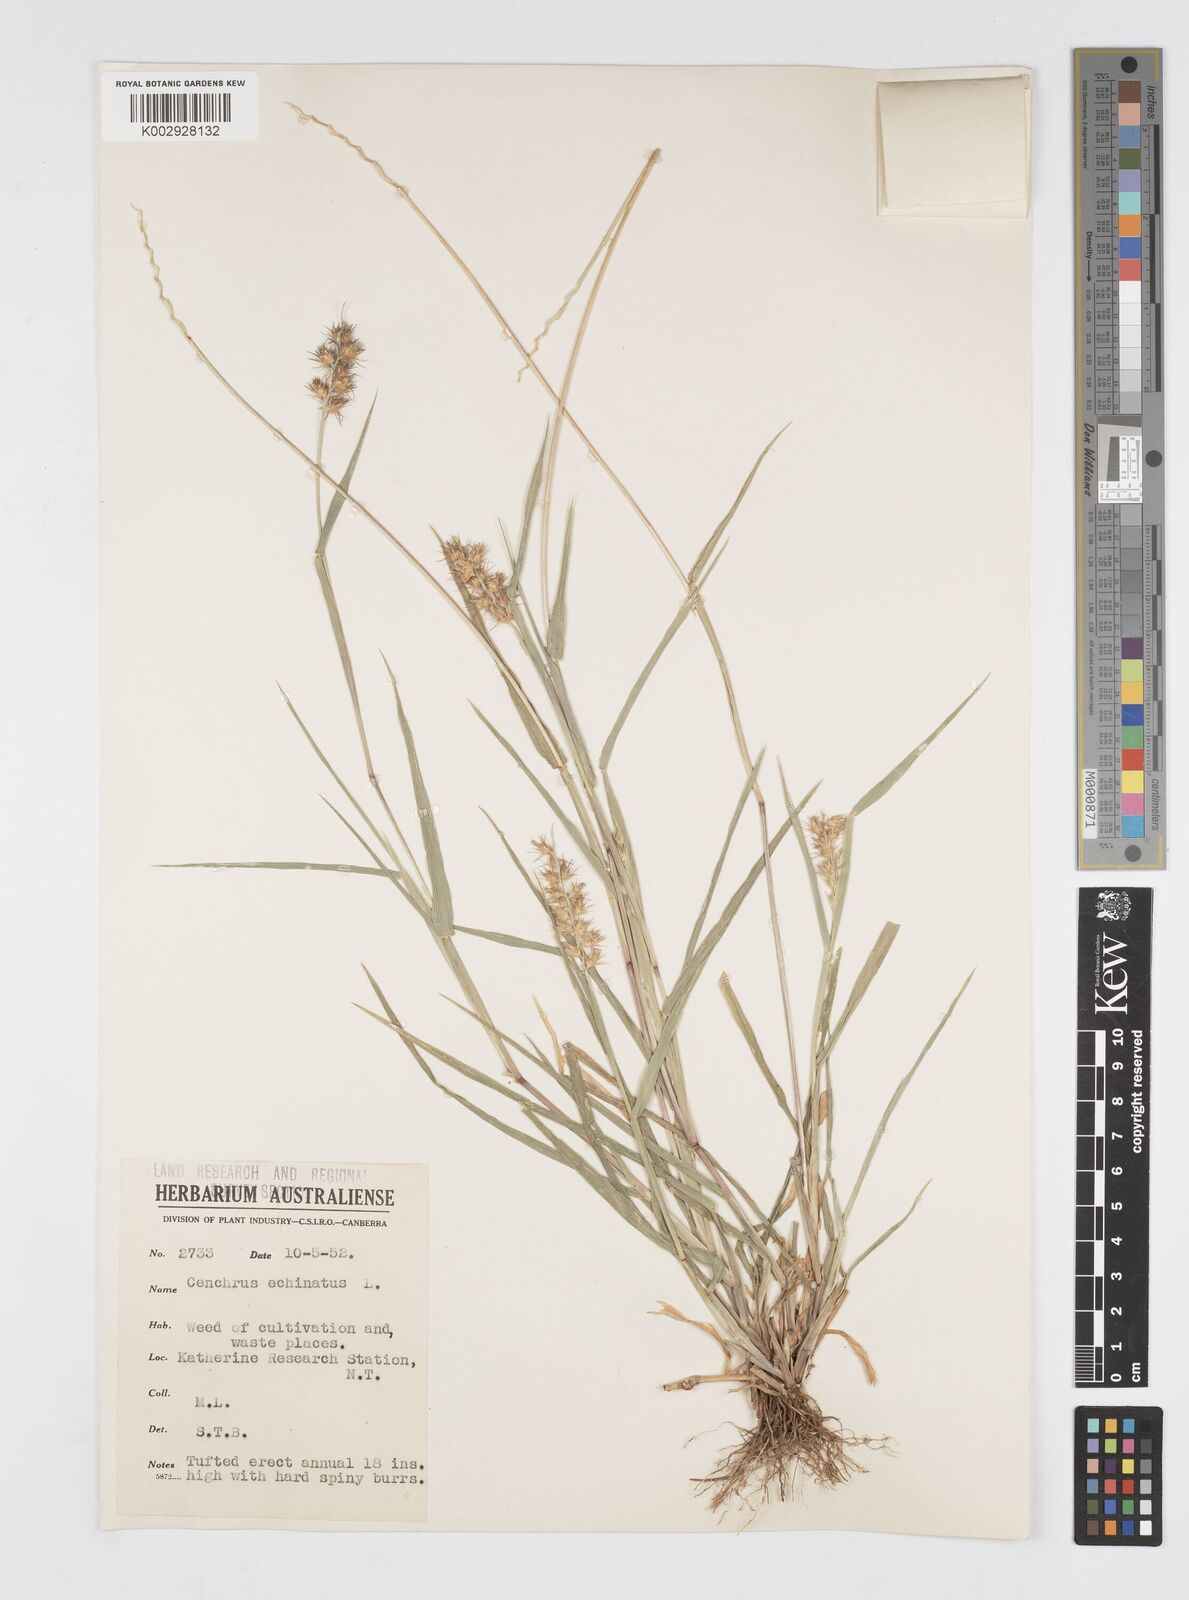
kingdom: Plantae
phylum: Tracheophyta
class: Liliopsida
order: Poales
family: Poaceae
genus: Cenchrus
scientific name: Cenchrus echinatus
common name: Southern sandbur
